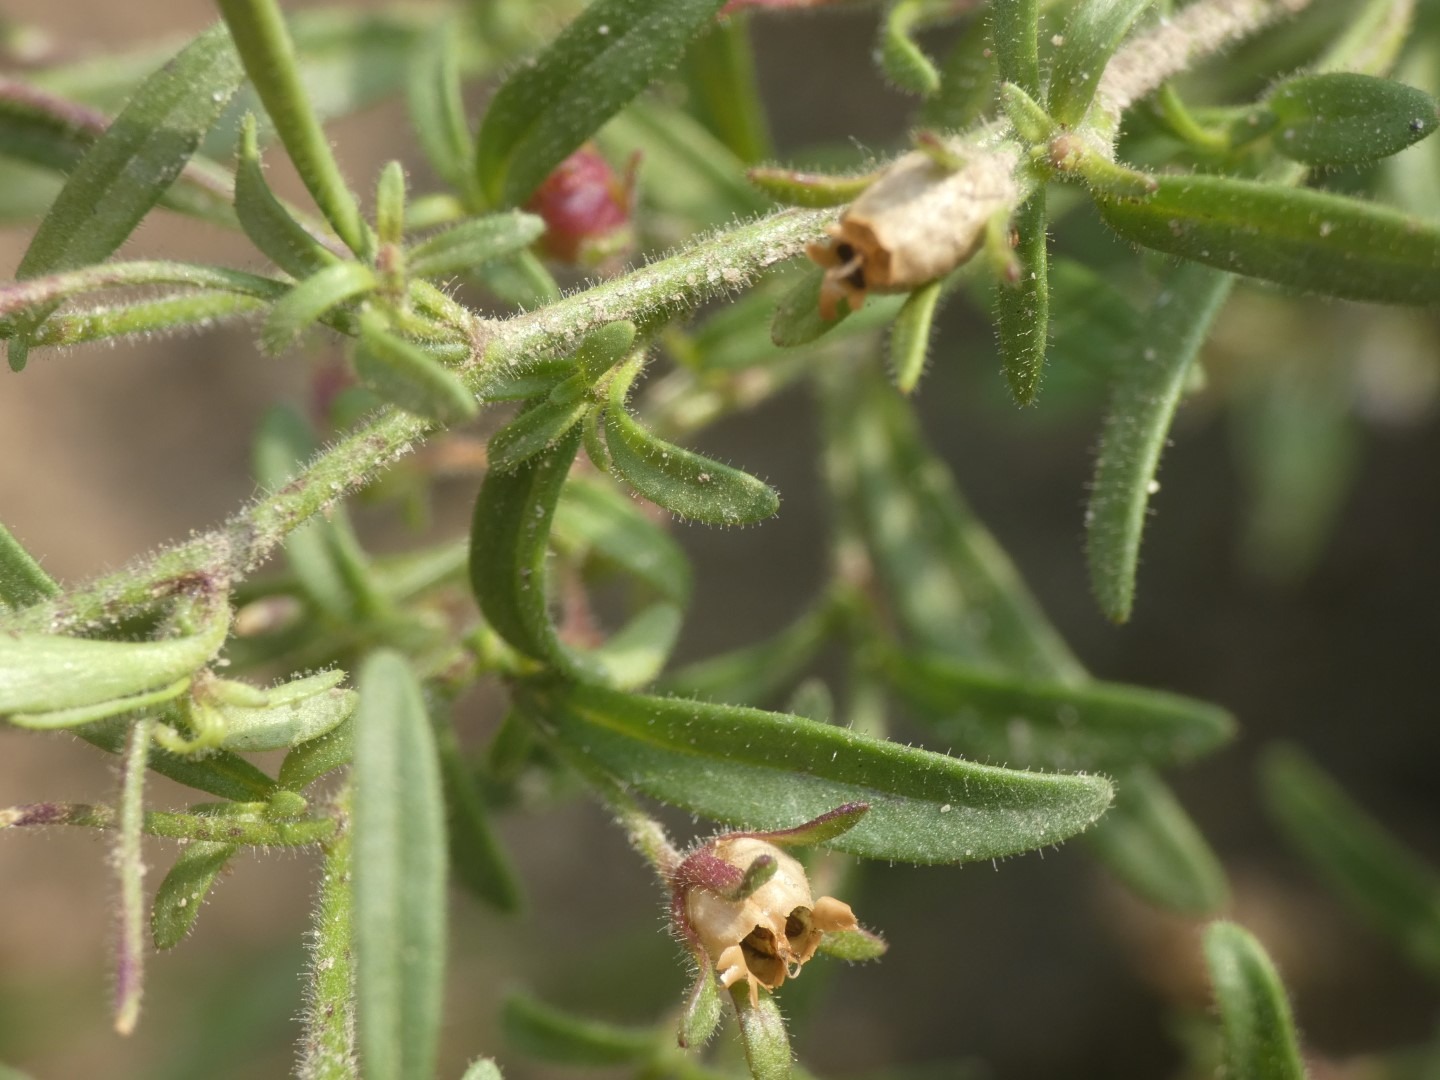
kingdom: Plantae
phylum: Tracheophyta
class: Magnoliopsida
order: Lamiales
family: Plantaginaceae
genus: Chaenorhinum
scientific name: Chaenorhinum minus
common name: Liden torskemund
